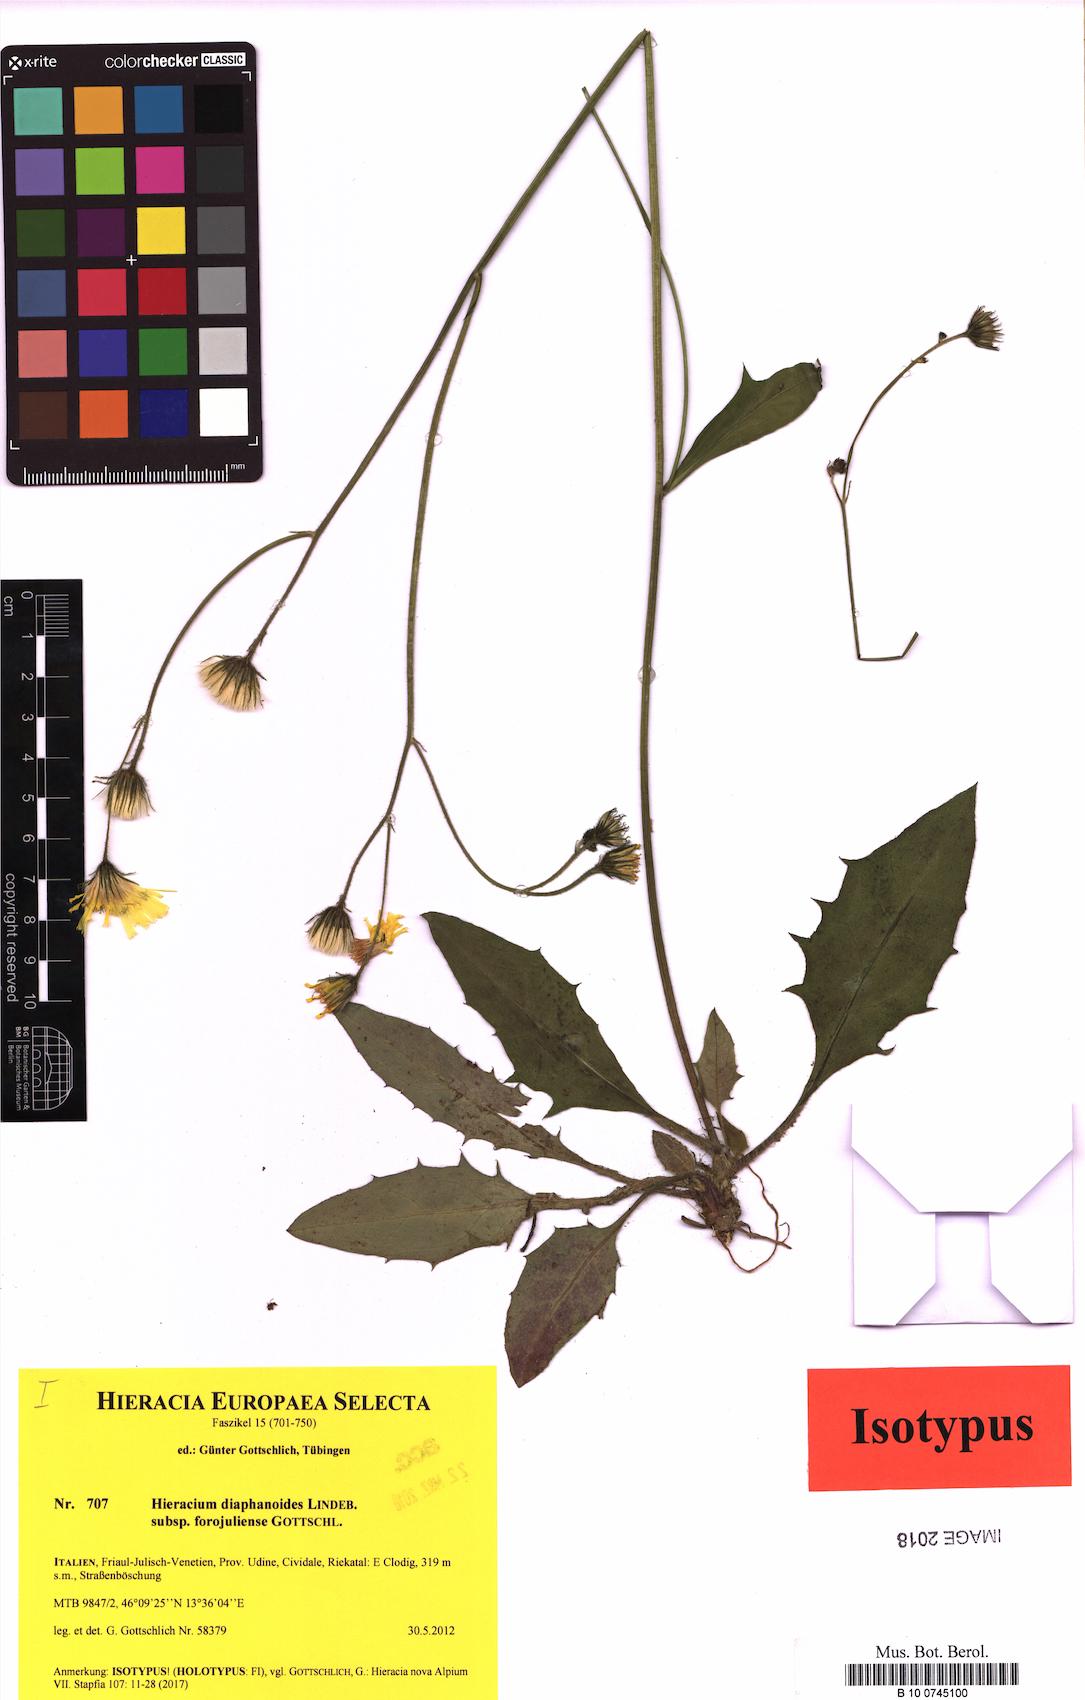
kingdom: Plantae
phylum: Tracheophyta
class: Magnoliopsida
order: Asterales
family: Asteraceae
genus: Hieracium
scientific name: Hieracium diaphanoides
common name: Fine-bracted hawkweed
